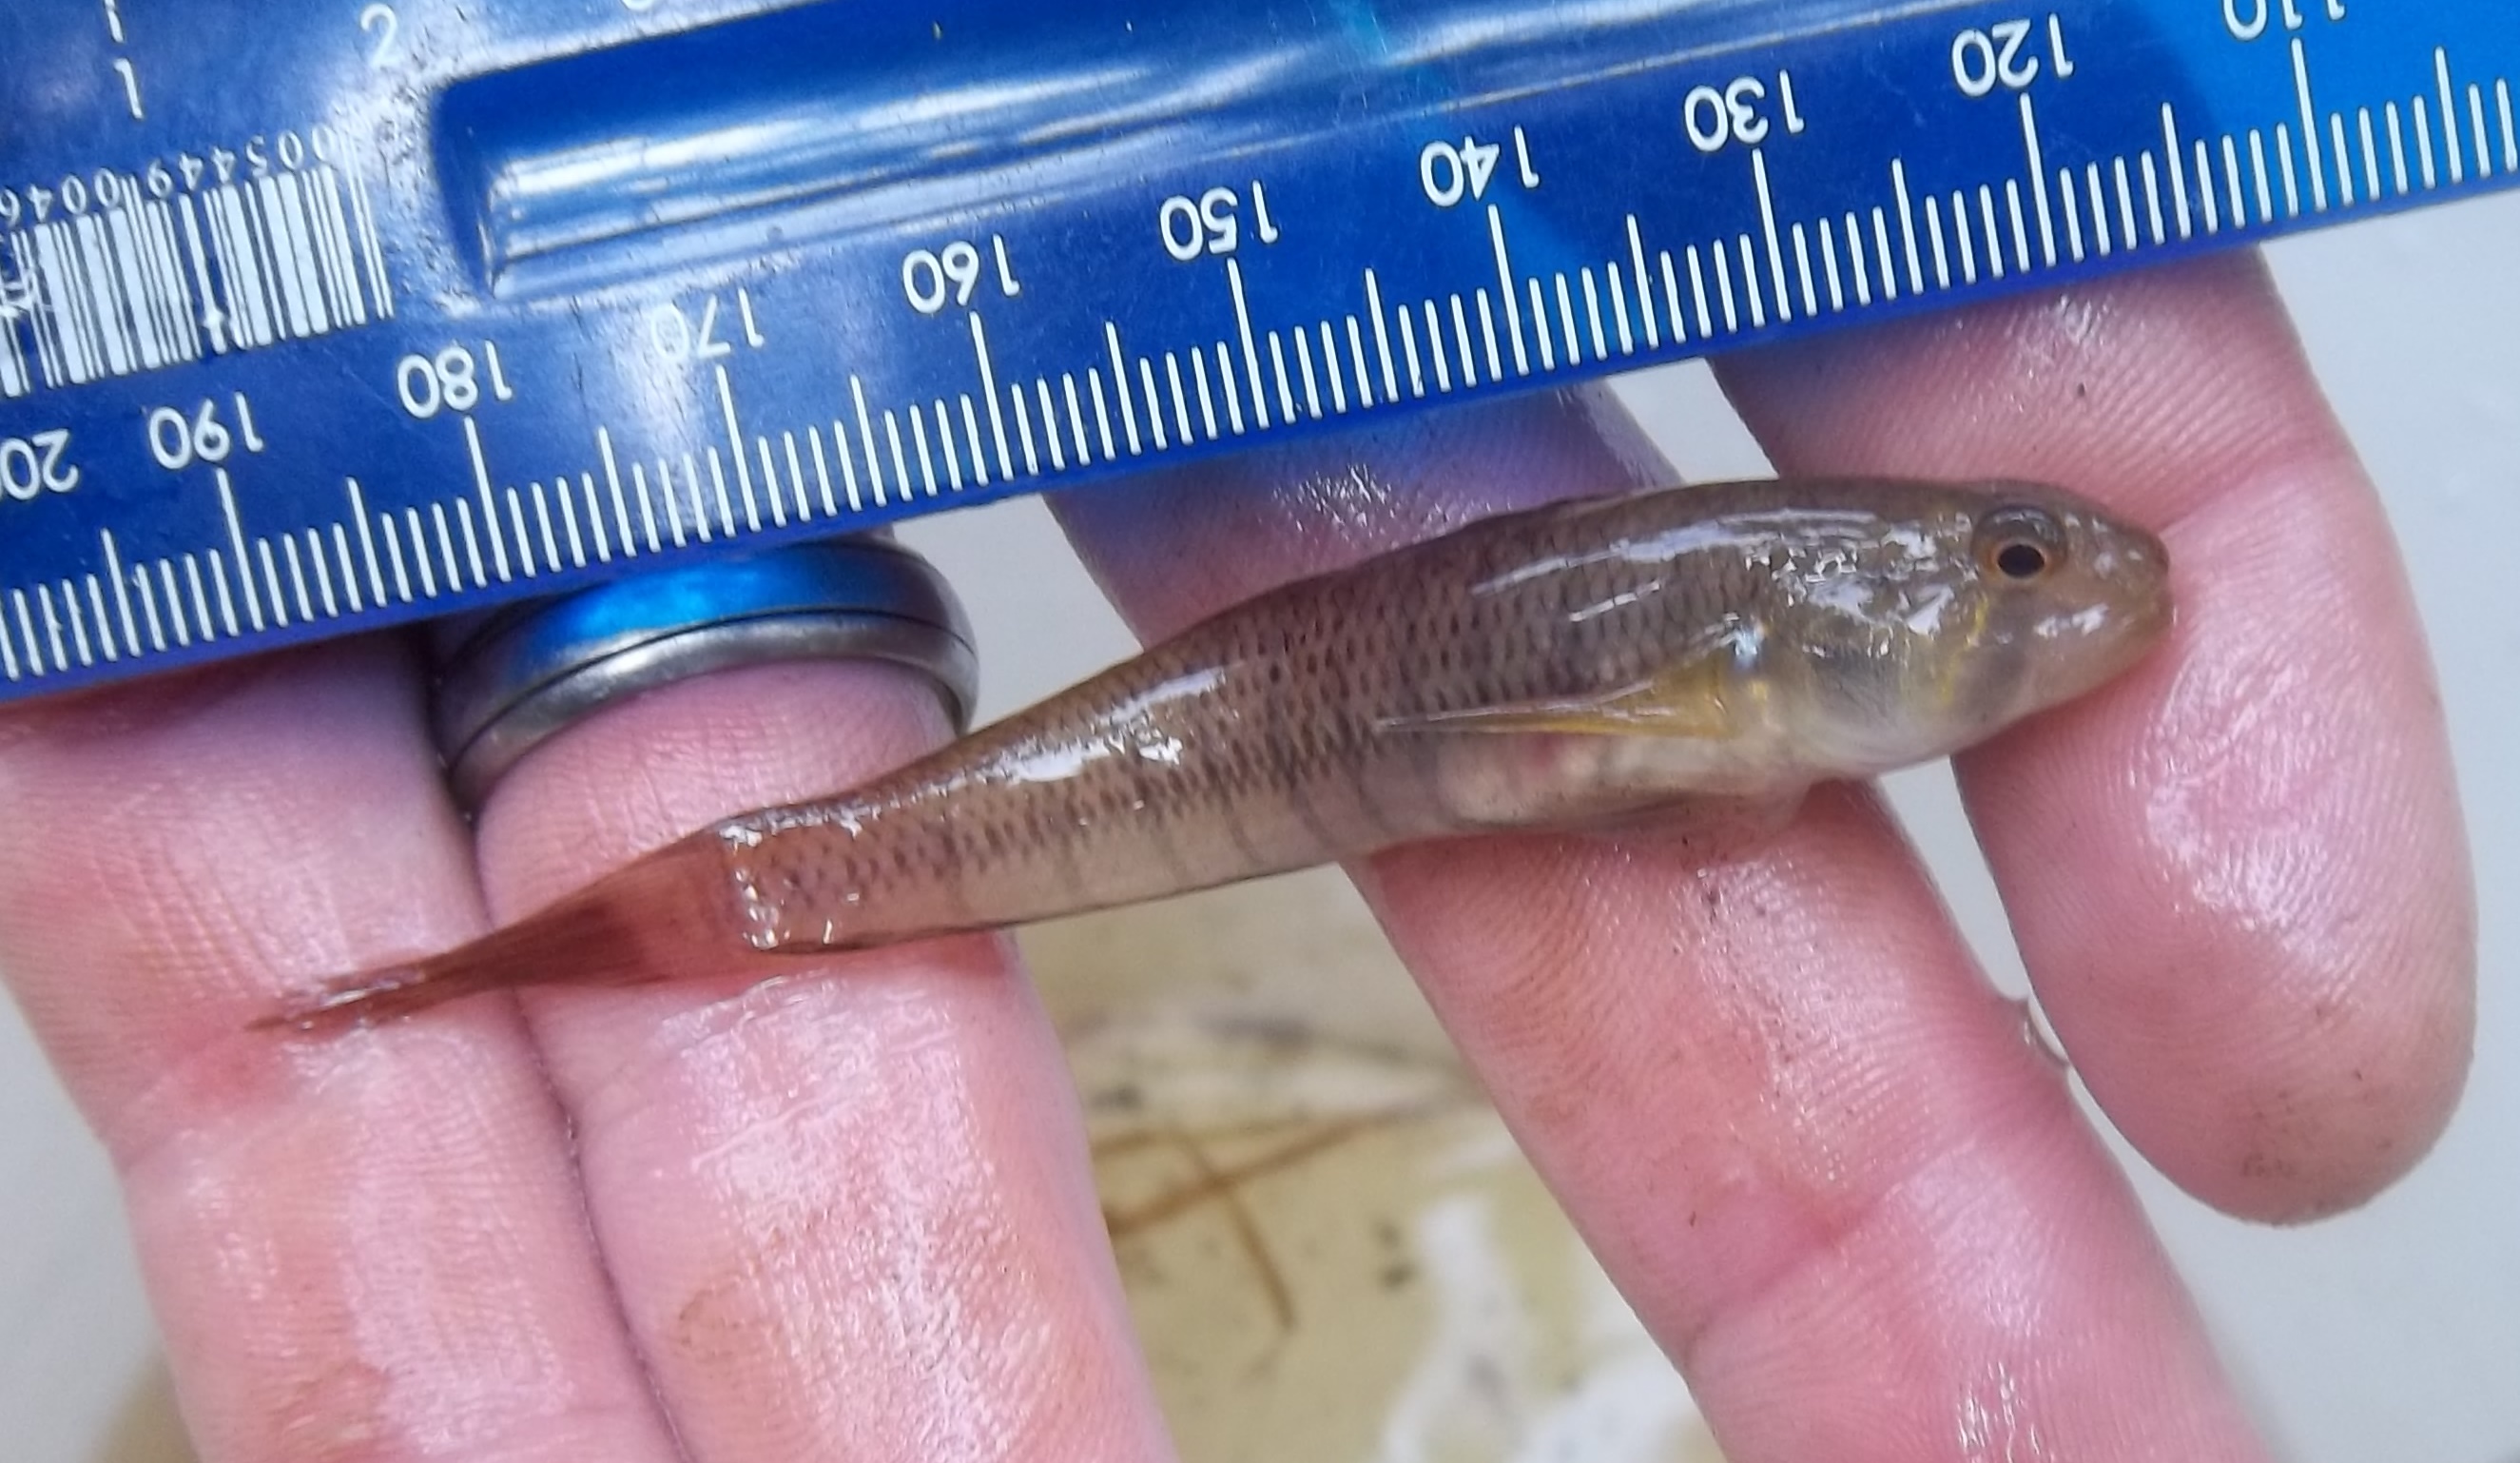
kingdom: Animalia
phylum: Chordata
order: Perciformes
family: Gobiidae
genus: Stenogobius
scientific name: Stenogobius polyzona
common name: Chinestripe goby
